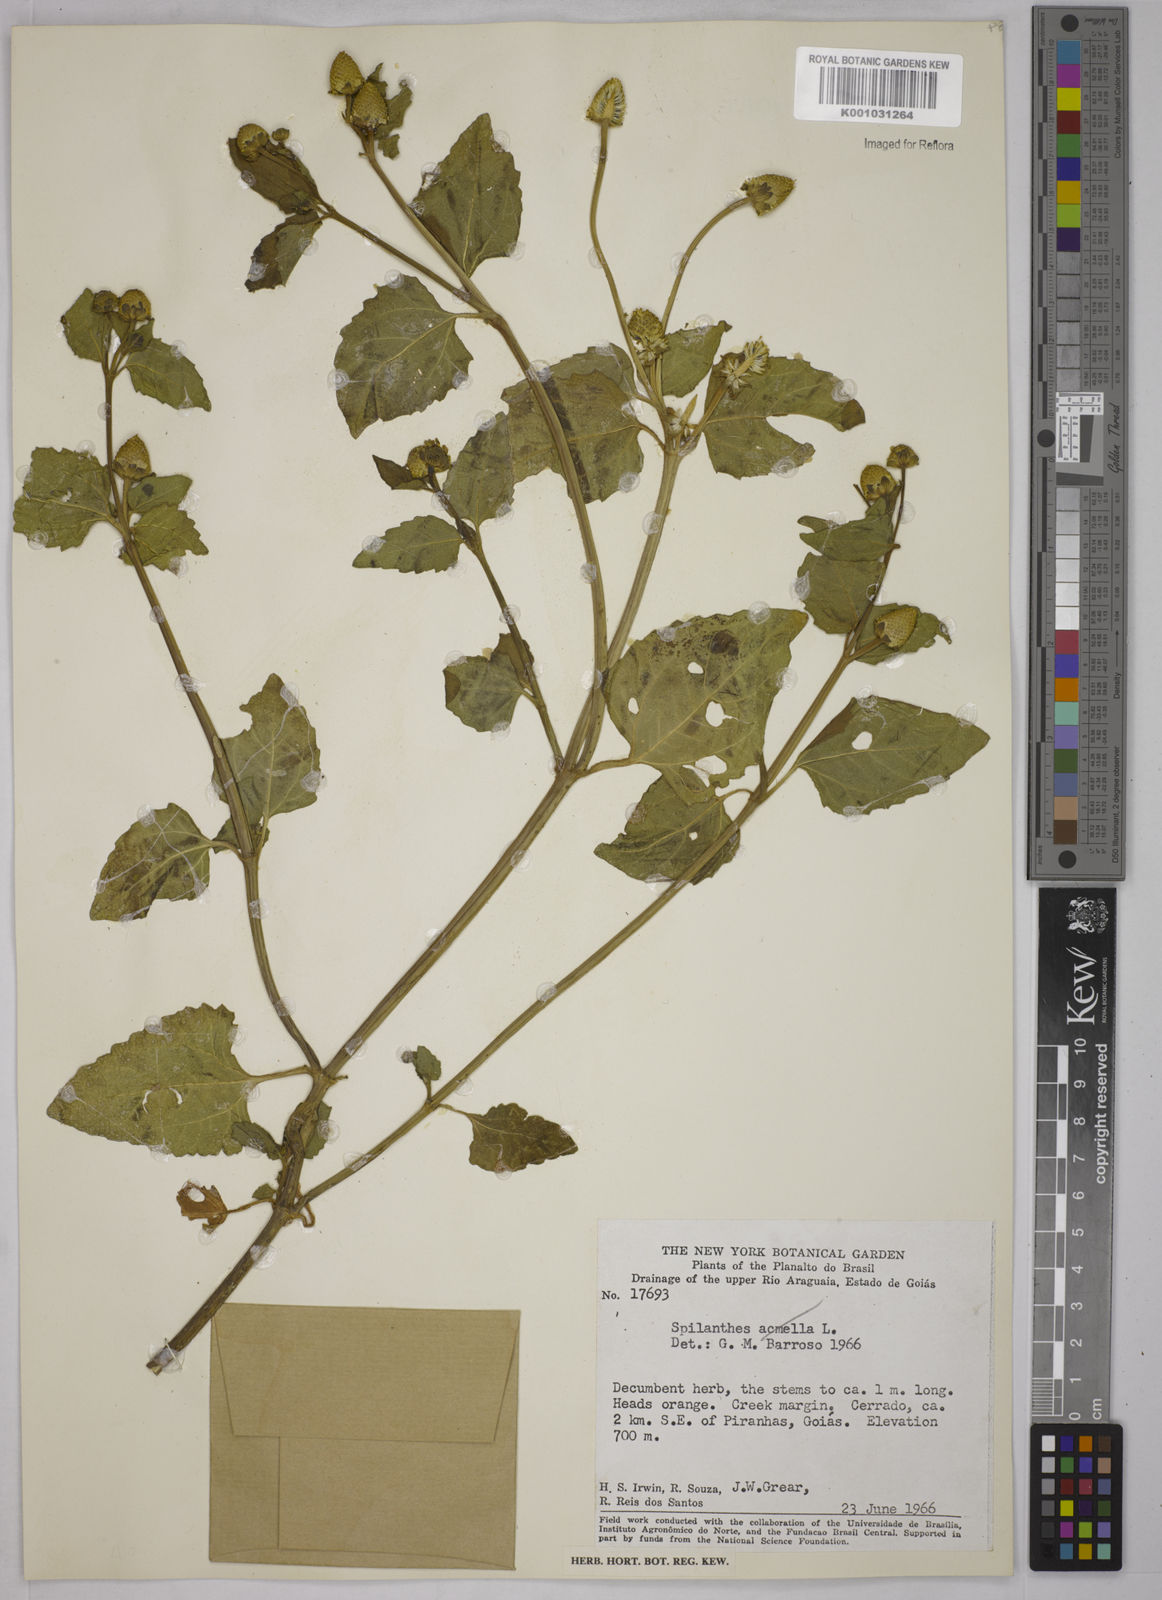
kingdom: Plantae
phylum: Tracheophyta
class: Magnoliopsida
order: Asterales
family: Asteraceae
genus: Acmella
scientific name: Acmella ciliata
